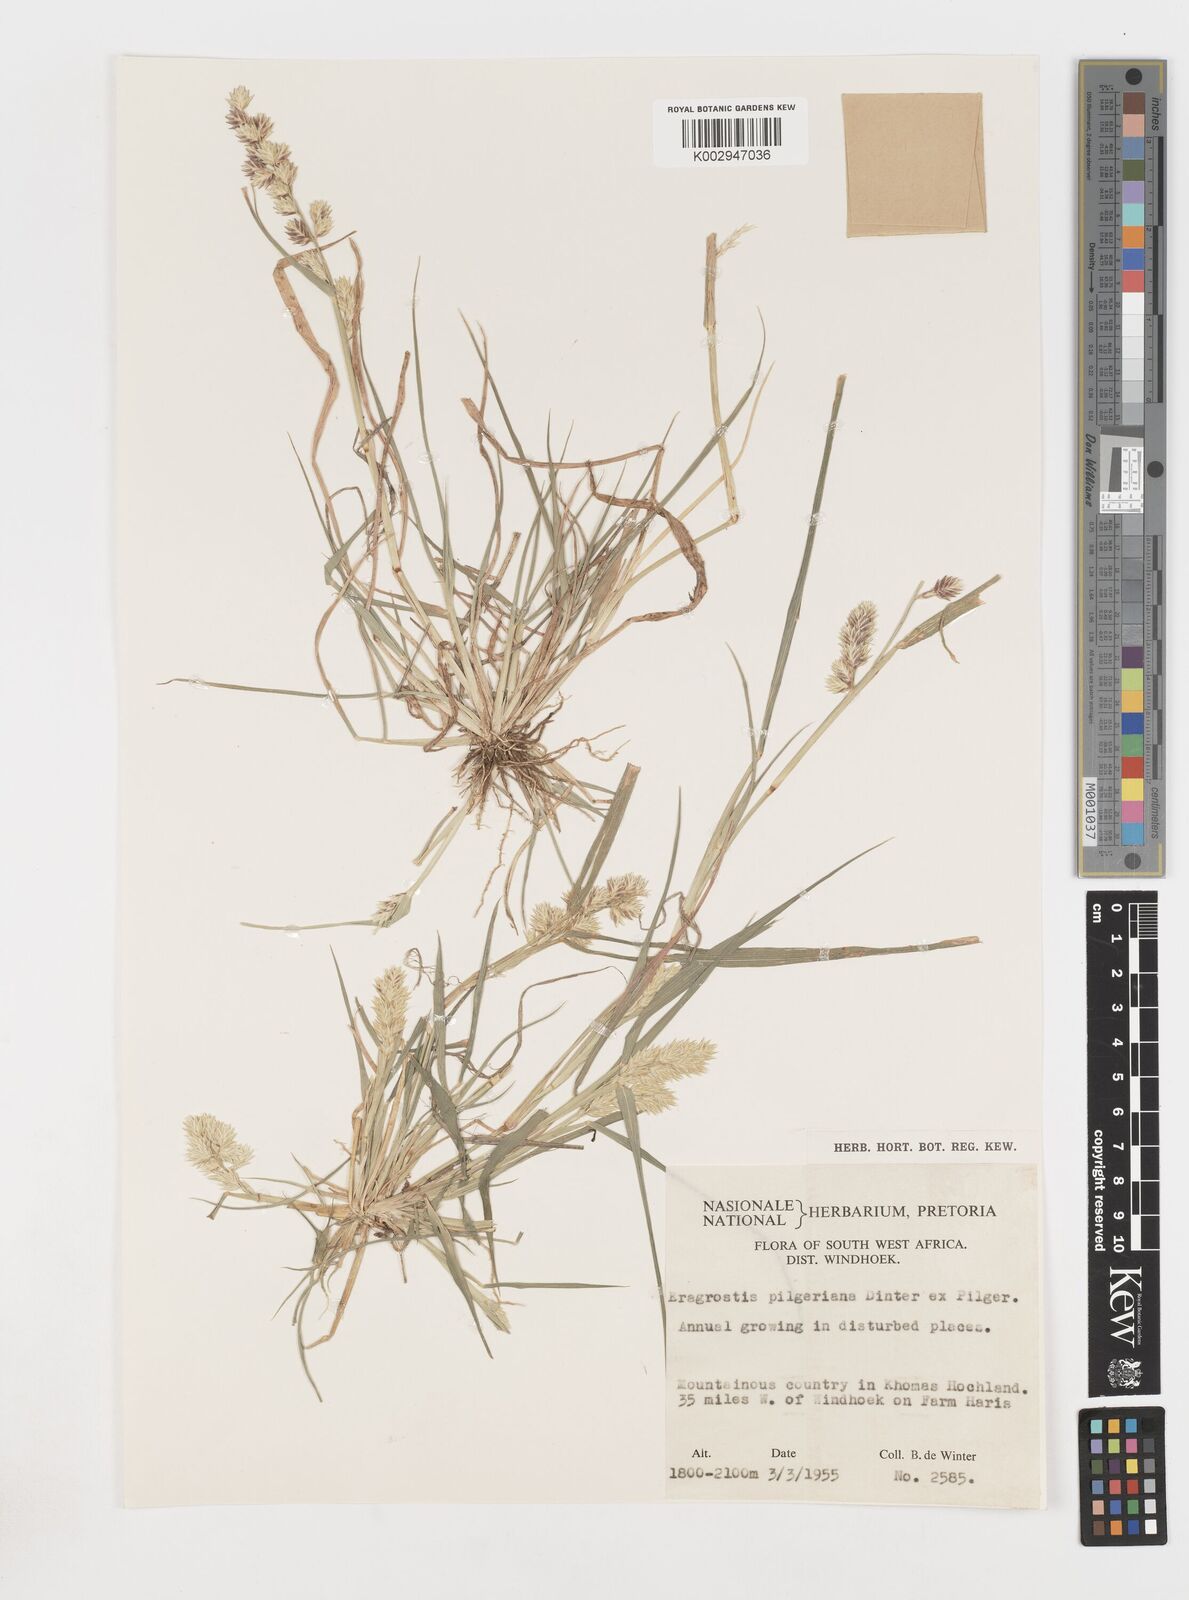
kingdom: Plantae
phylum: Tracheophyta
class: Liliopsida
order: Poales
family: Poaceae
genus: Eragrostis
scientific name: Eragrostis pilgeriana
